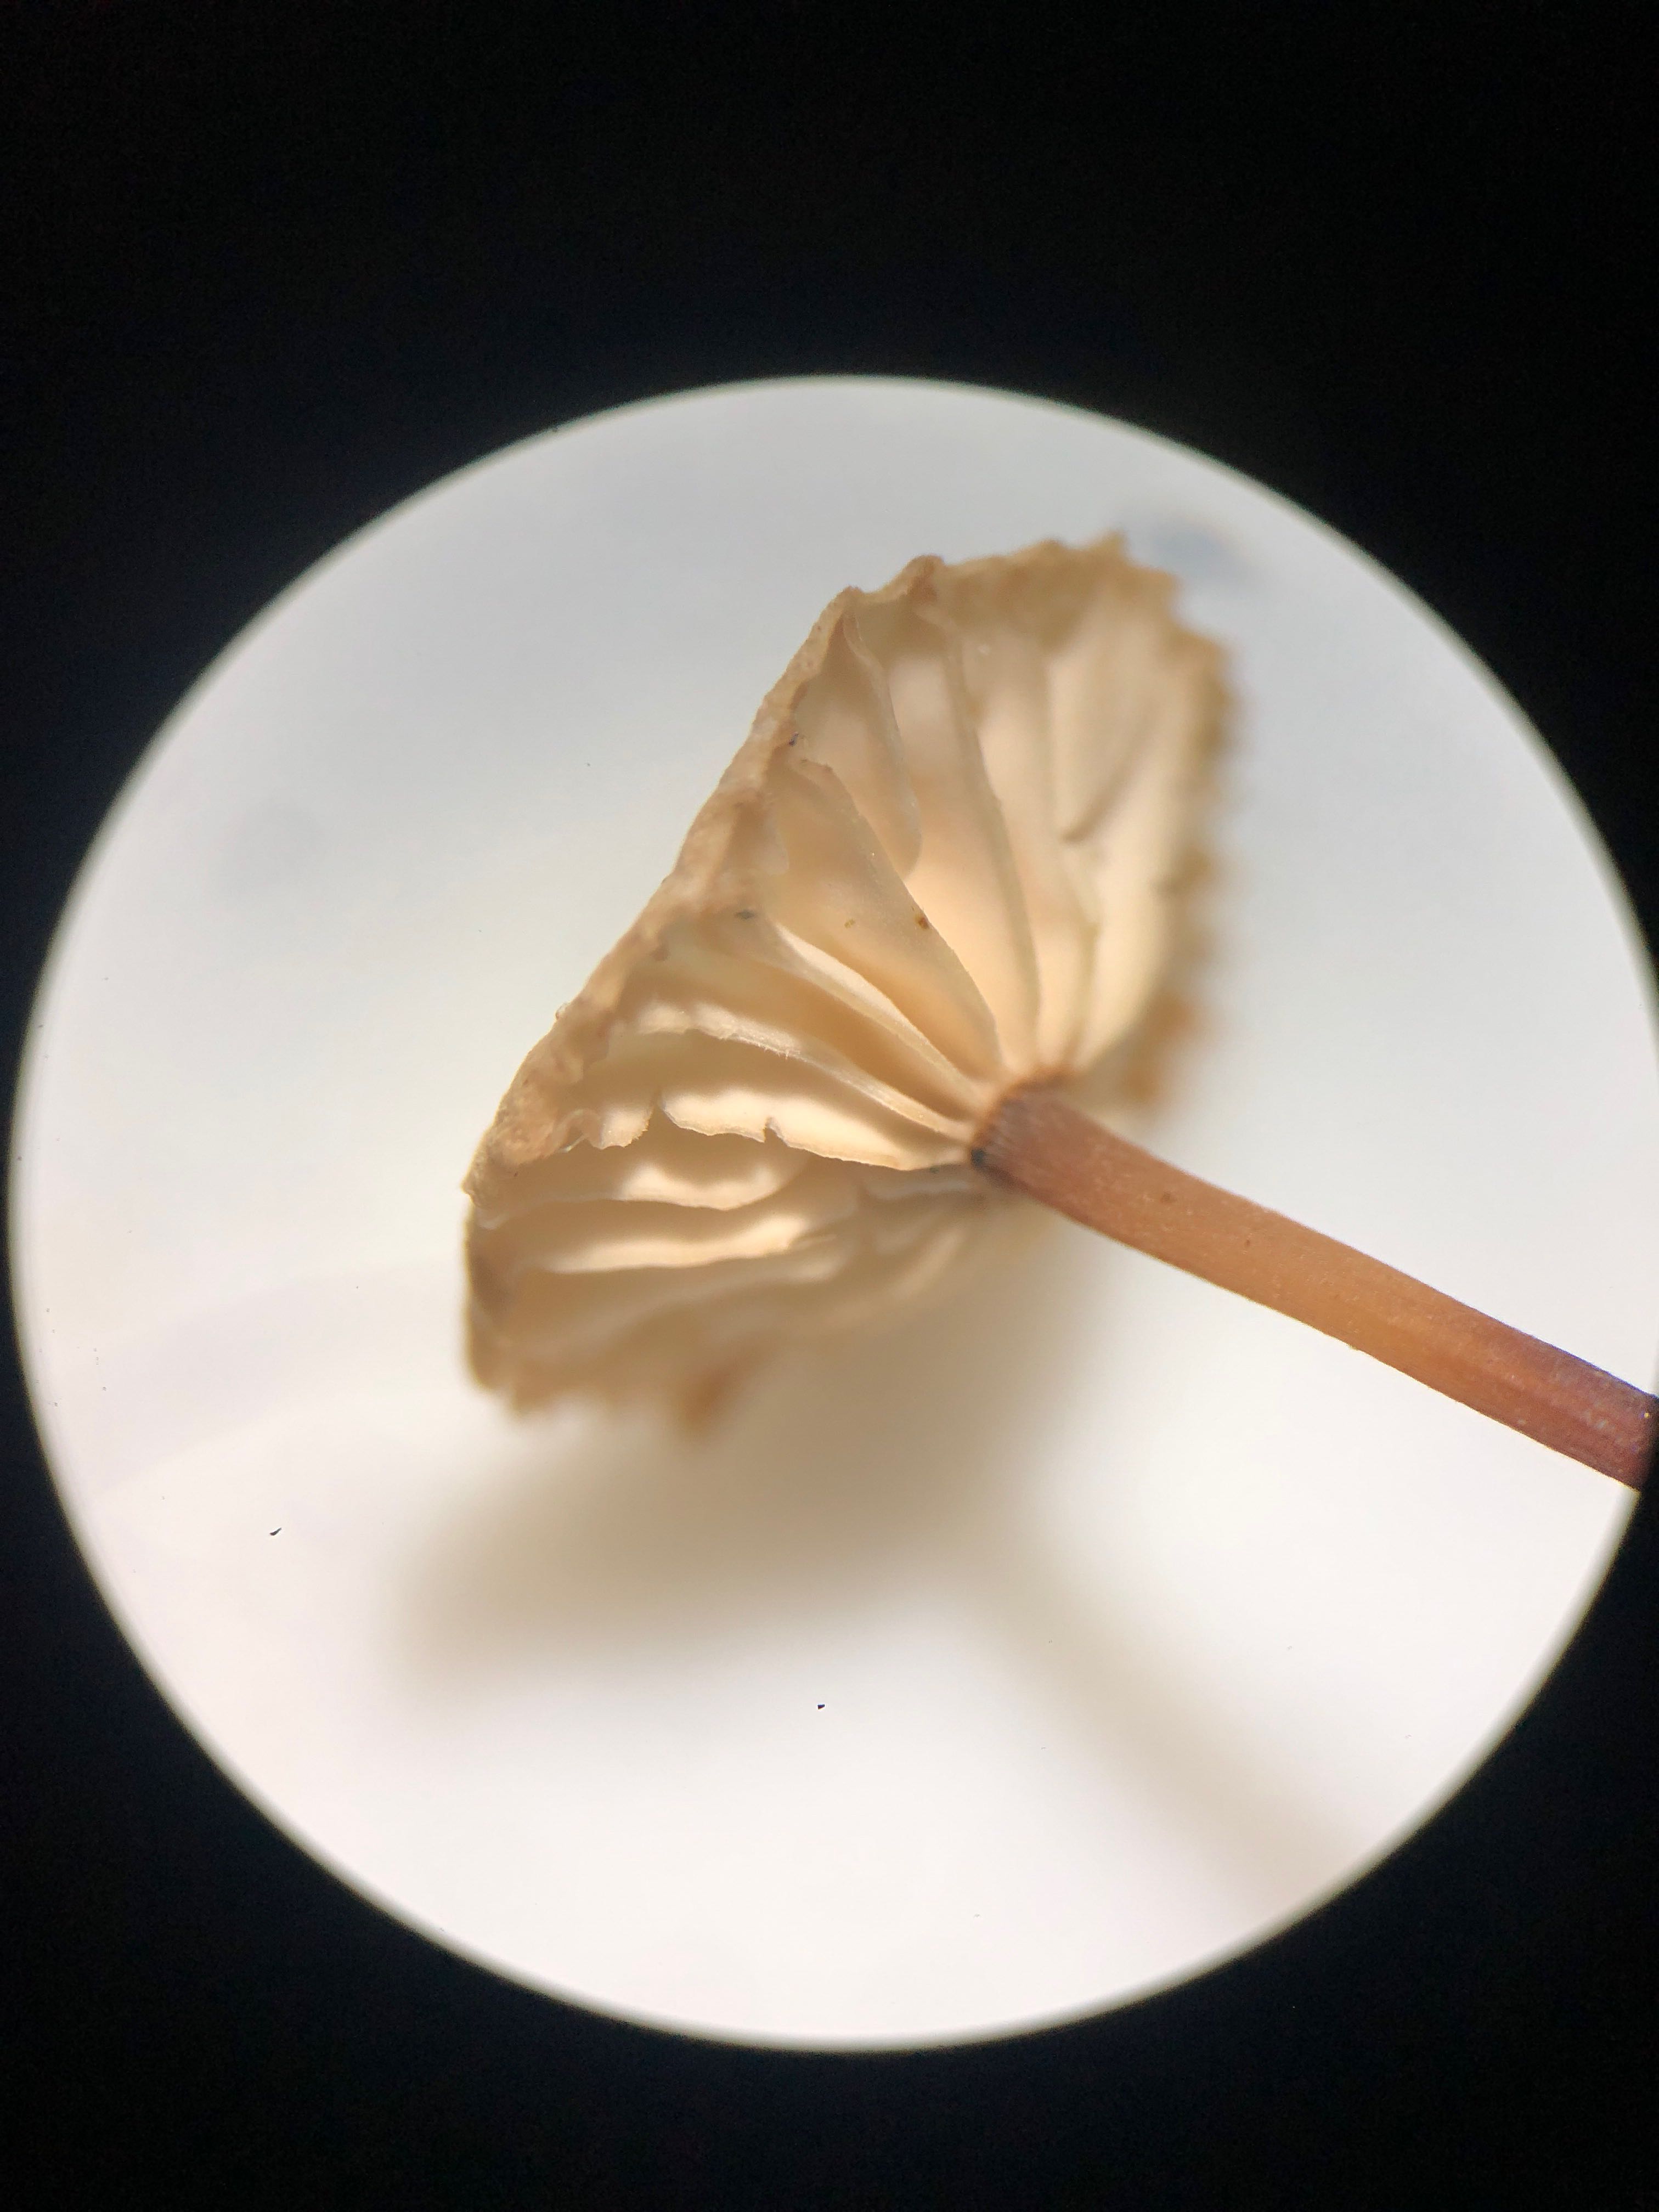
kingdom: Fungi
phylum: Basidiomycota
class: Agaricomycetes
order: Agaricales
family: Omphalotaceae
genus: Paragymnopus
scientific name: Paragymnopus perforans
